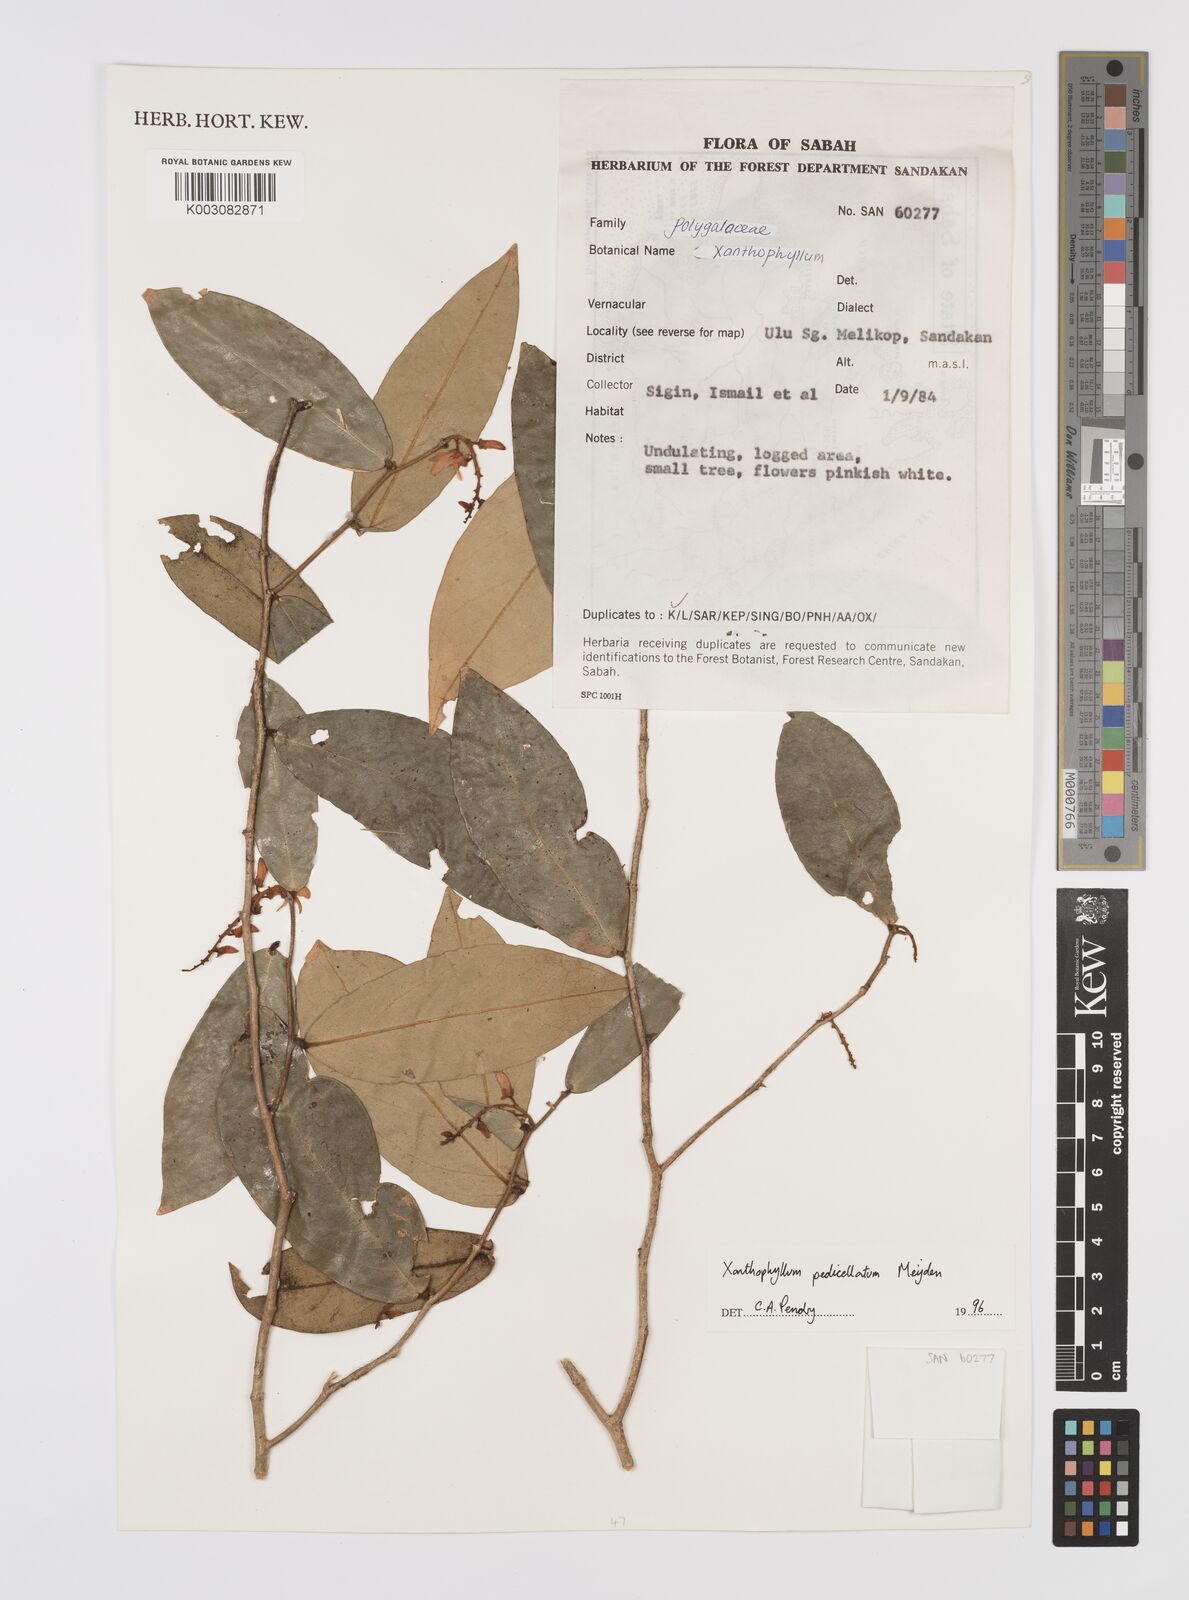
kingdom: Plantae
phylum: Tracheophyta
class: Magnoliopsida
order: Fabales
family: Polygalaceae
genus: Xanthophyllum
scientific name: Xanthophyllum pedicellatum
